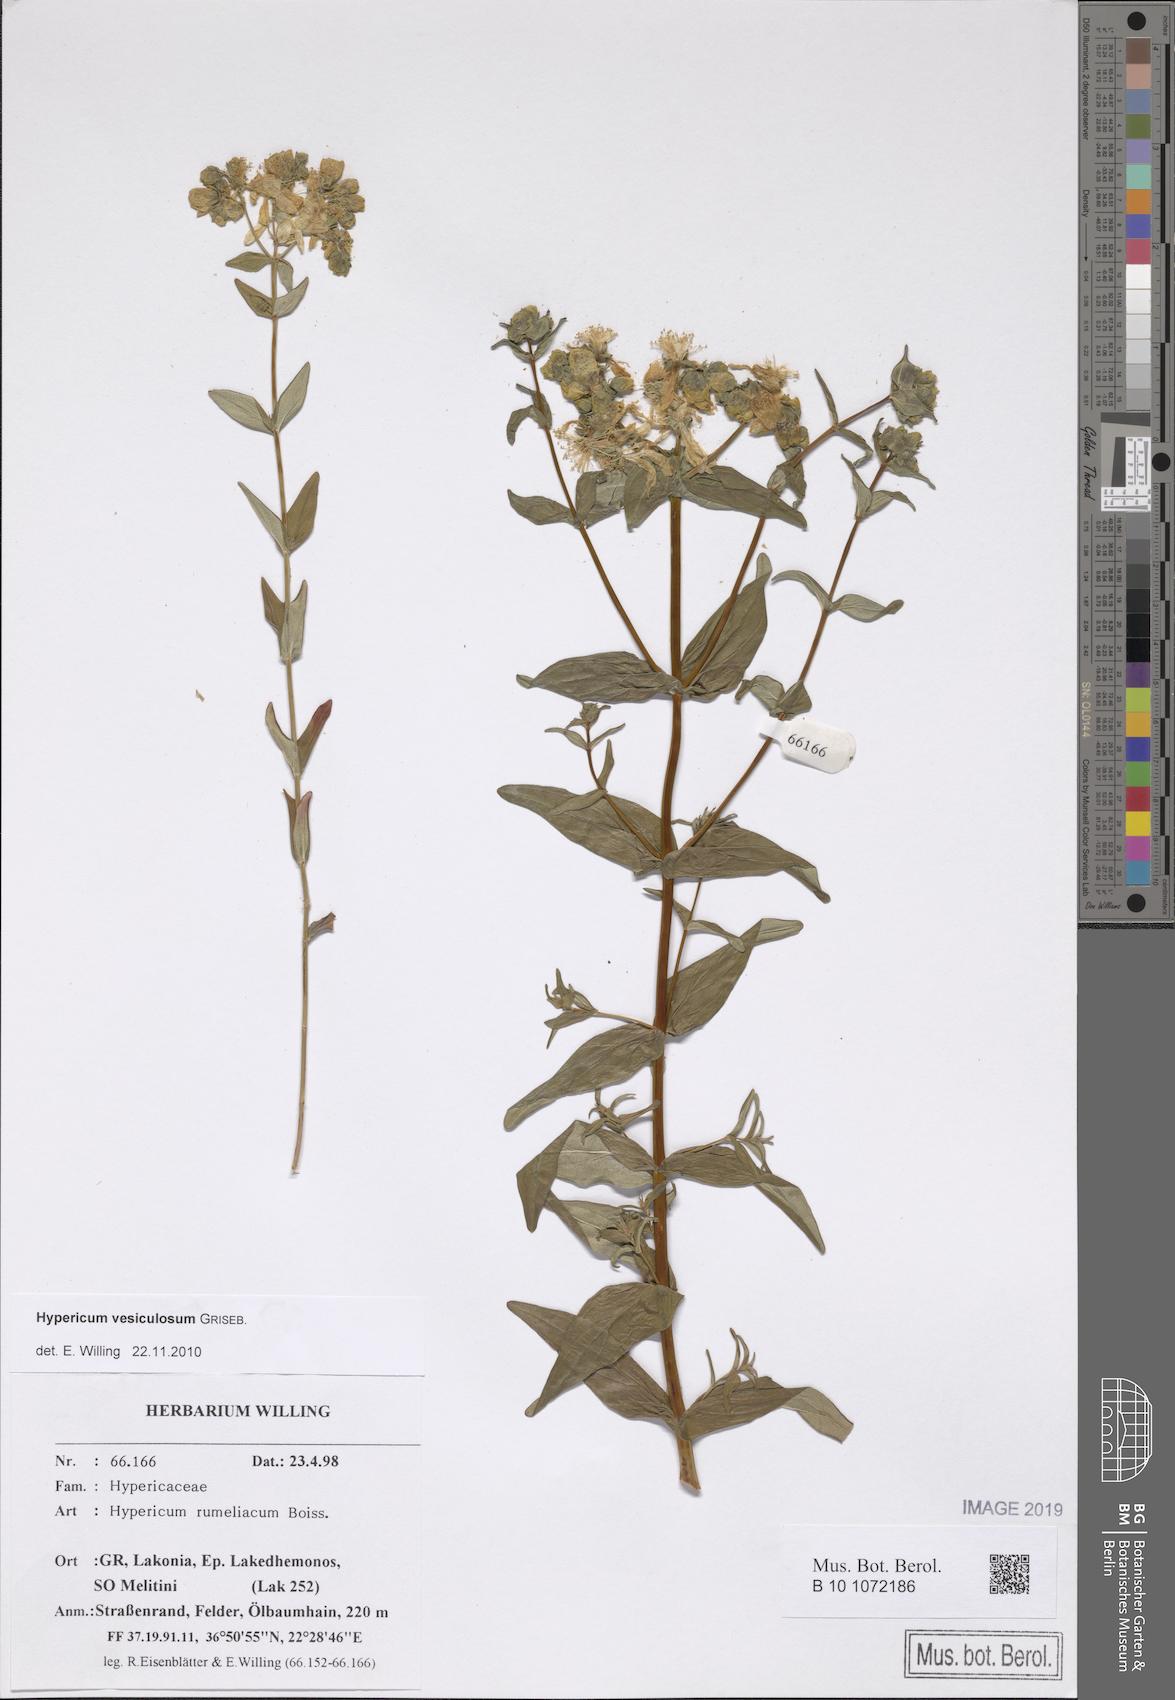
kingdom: Plantae
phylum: Tracheophyta
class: Magnoliopsida
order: Malpighiales
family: Hypericaceae
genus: Hypericum
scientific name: Hypericum perfoliatum
